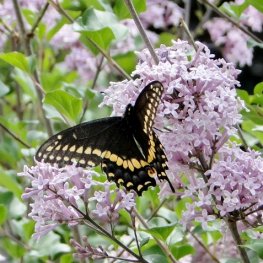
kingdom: Animalia
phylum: Arthropoda
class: Insecta
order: Lepidoptera
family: Papilionidae
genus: Papilio
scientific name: Papilio polyxenes
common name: Black Swallowtail
